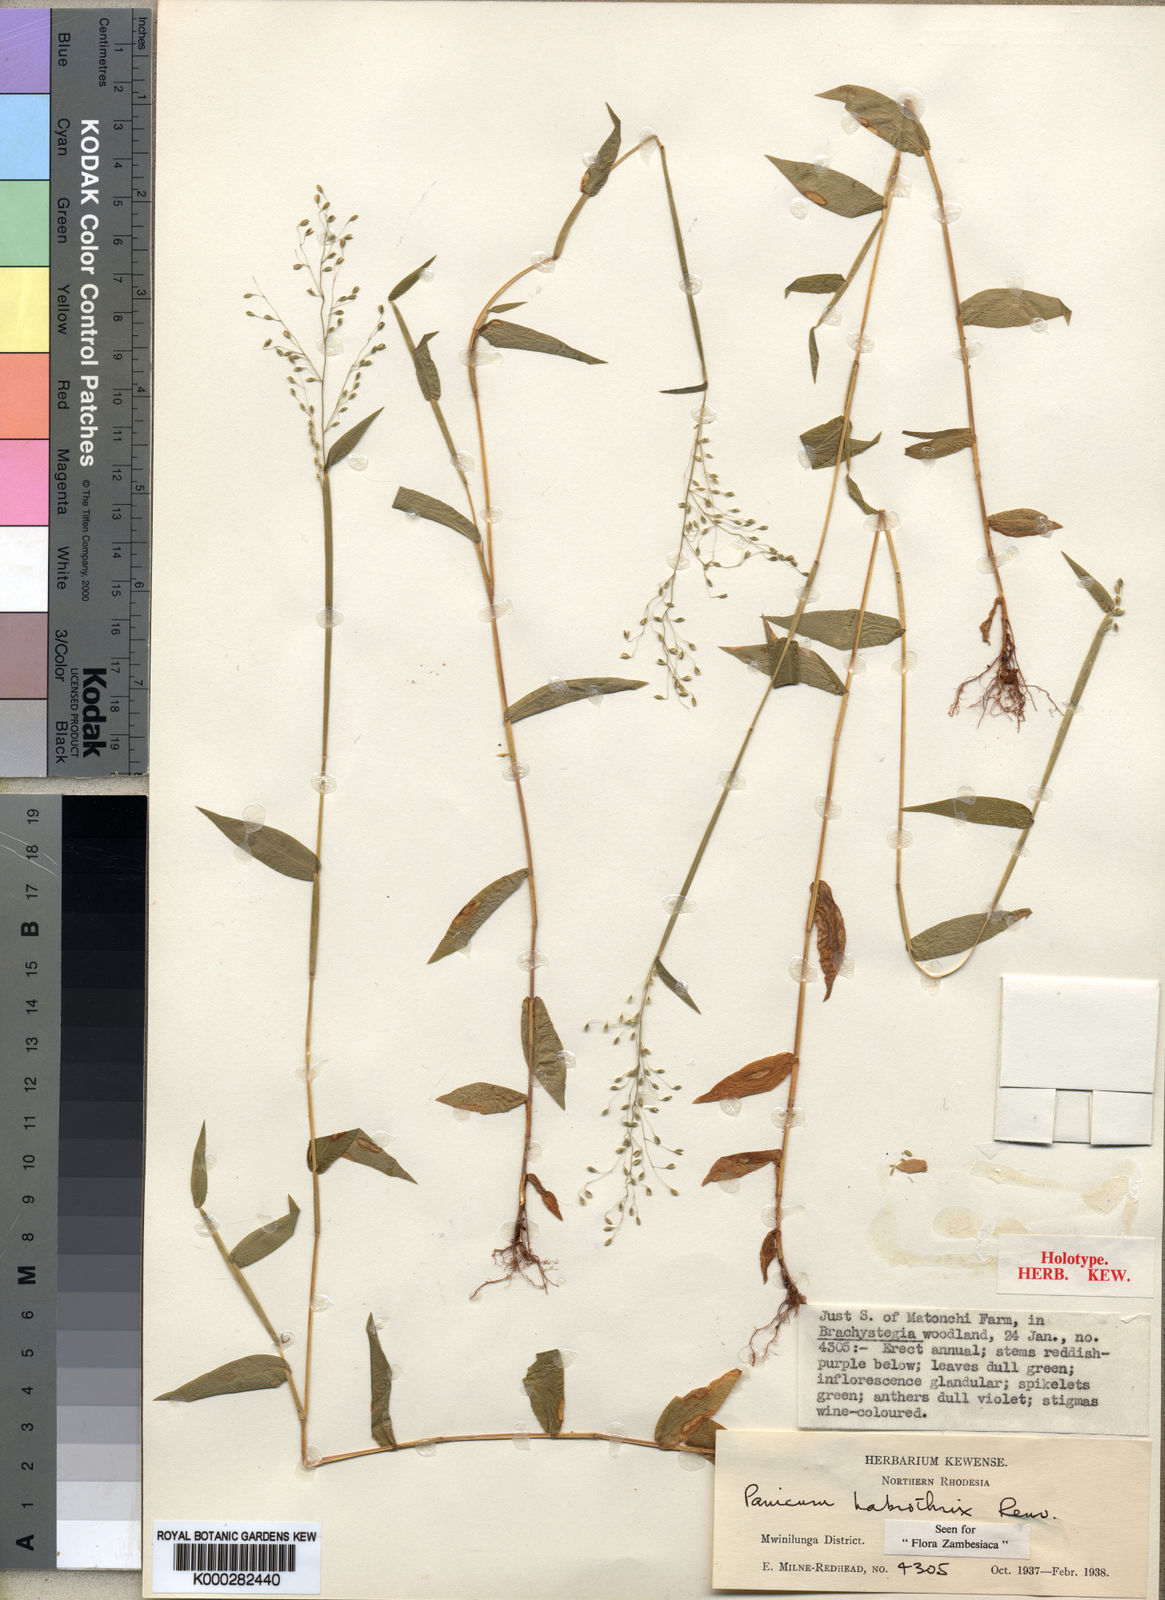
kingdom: Plantae
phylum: Tracheophyta
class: Liliopsida
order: Poales
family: Poaceae
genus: Panicum
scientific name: Panicum
